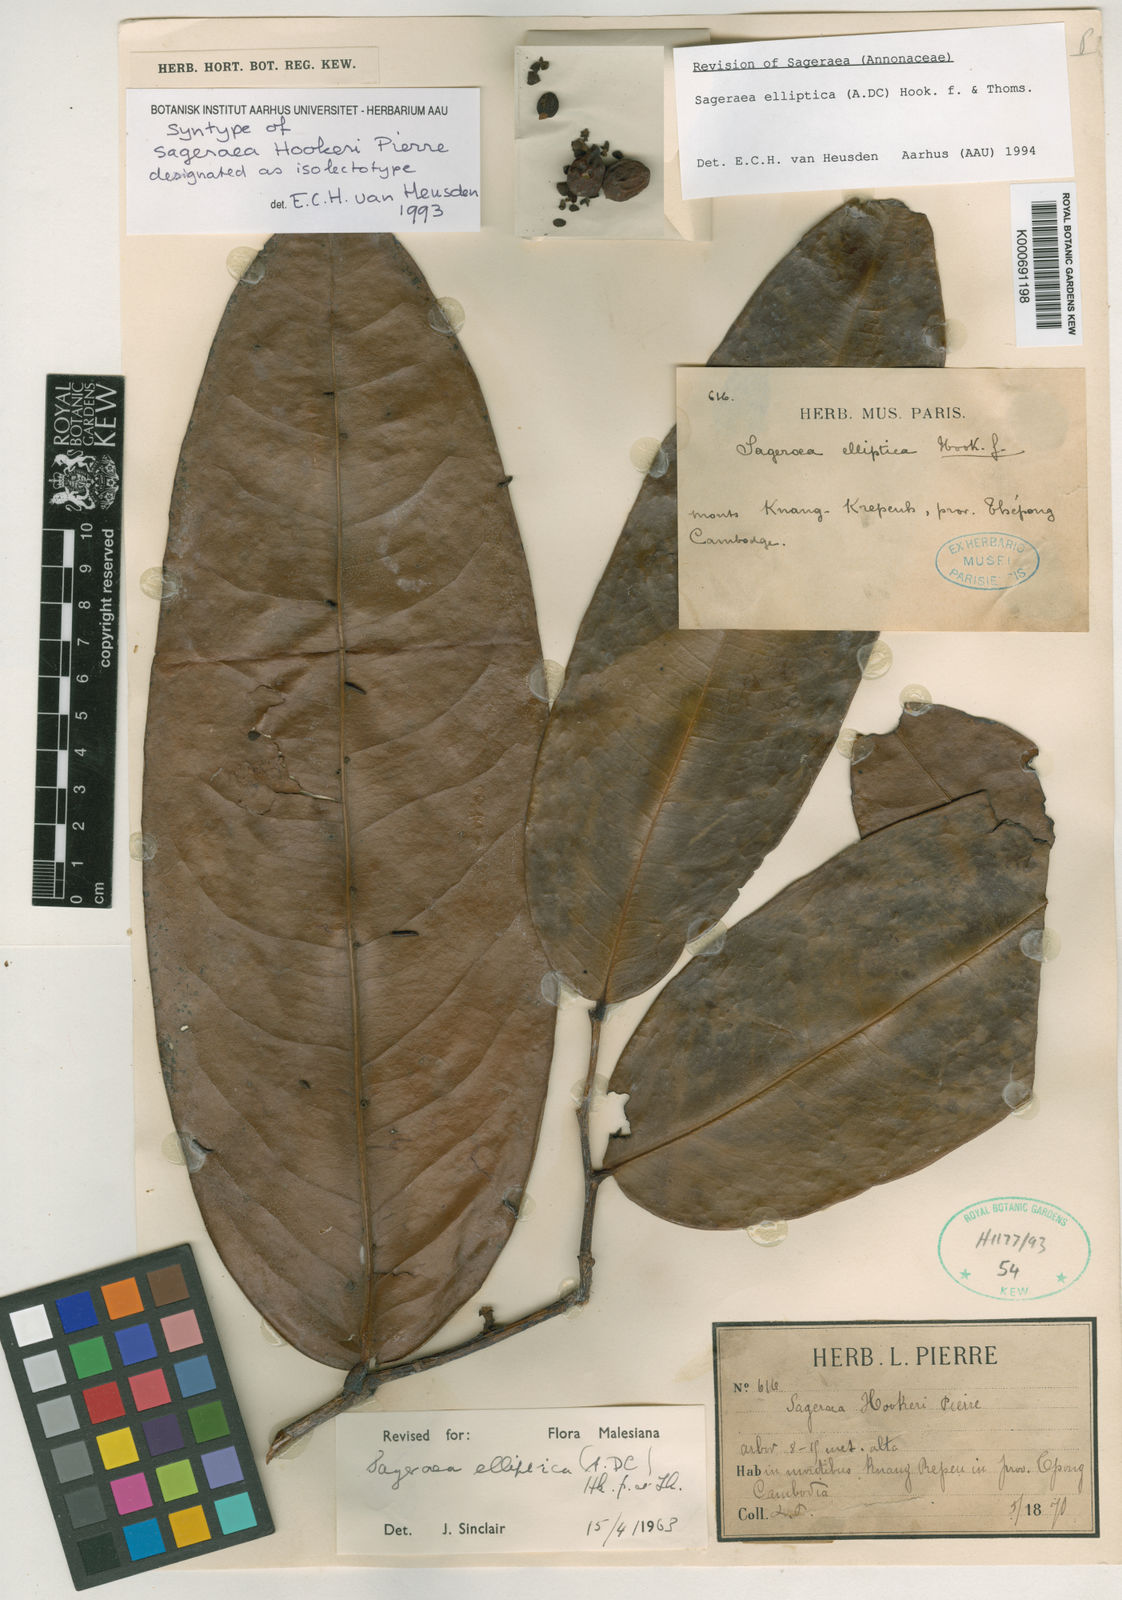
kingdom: Plantae
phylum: Tracheophyta
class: Magnoliopsida
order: Magnoliales
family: Annonaceae
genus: Sageraea
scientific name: Sageraea elliptica
